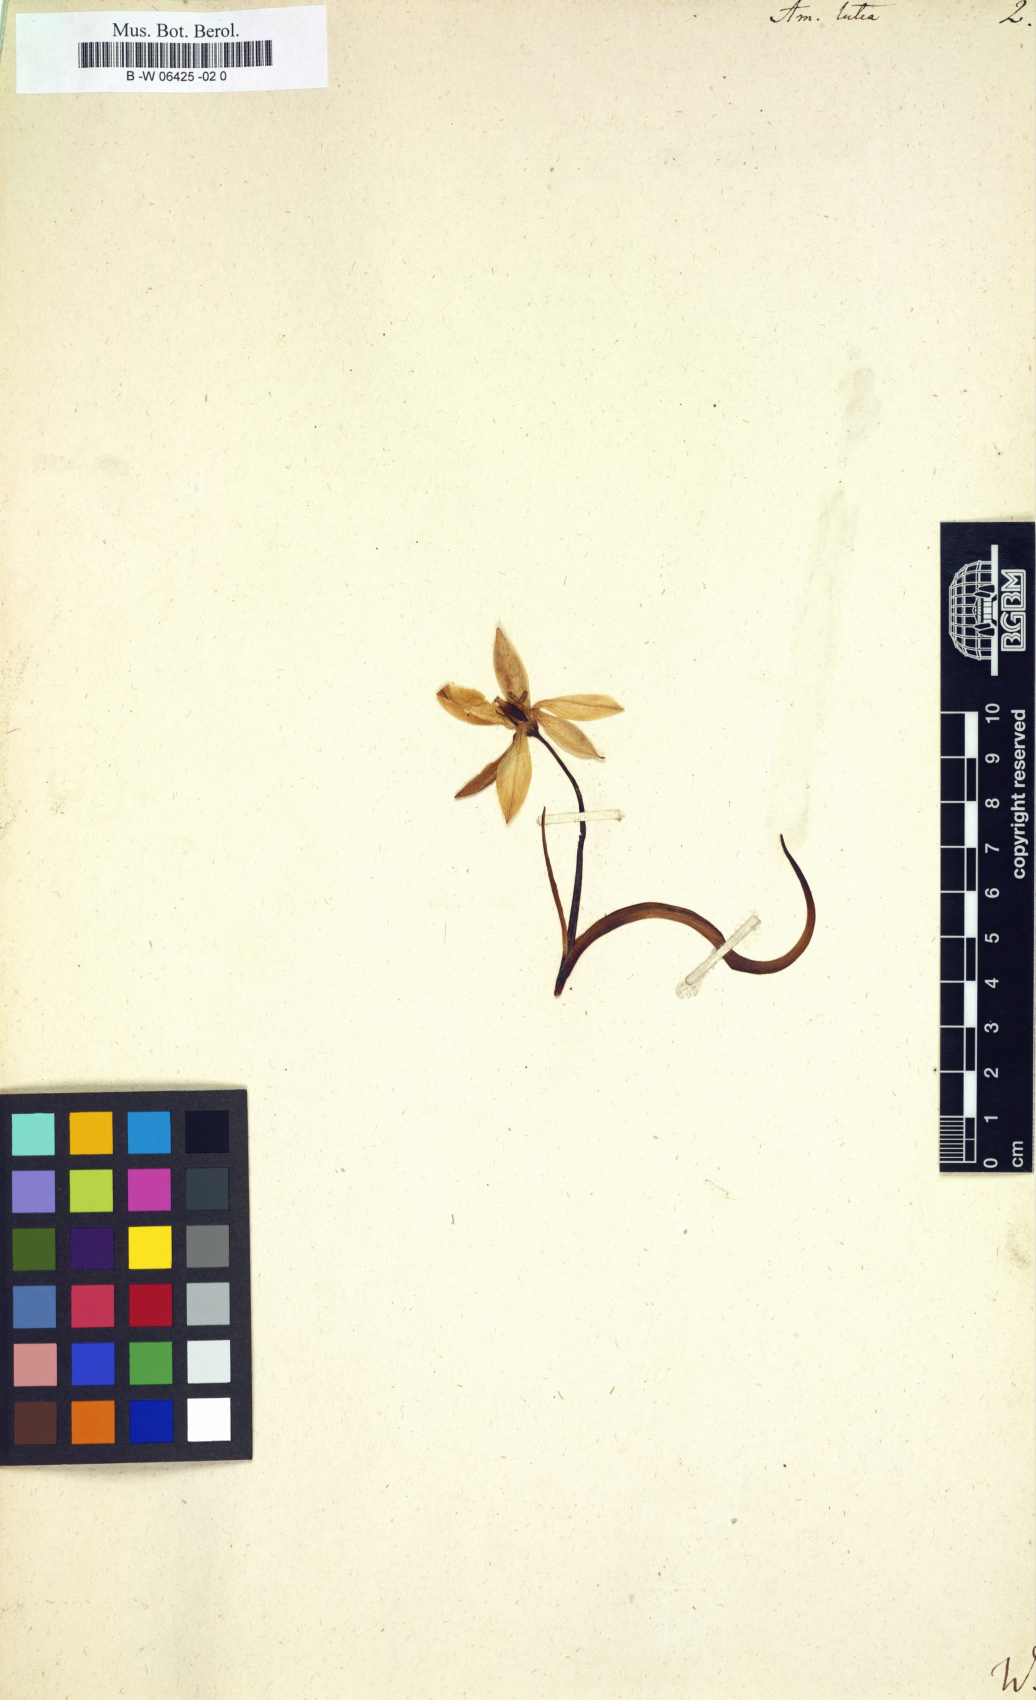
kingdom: Plantae
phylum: Tracheophyta
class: Liliopsida
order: Asparagales
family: Amaryllidaceae
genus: Amaryllis
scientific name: Amaryllis lutea
